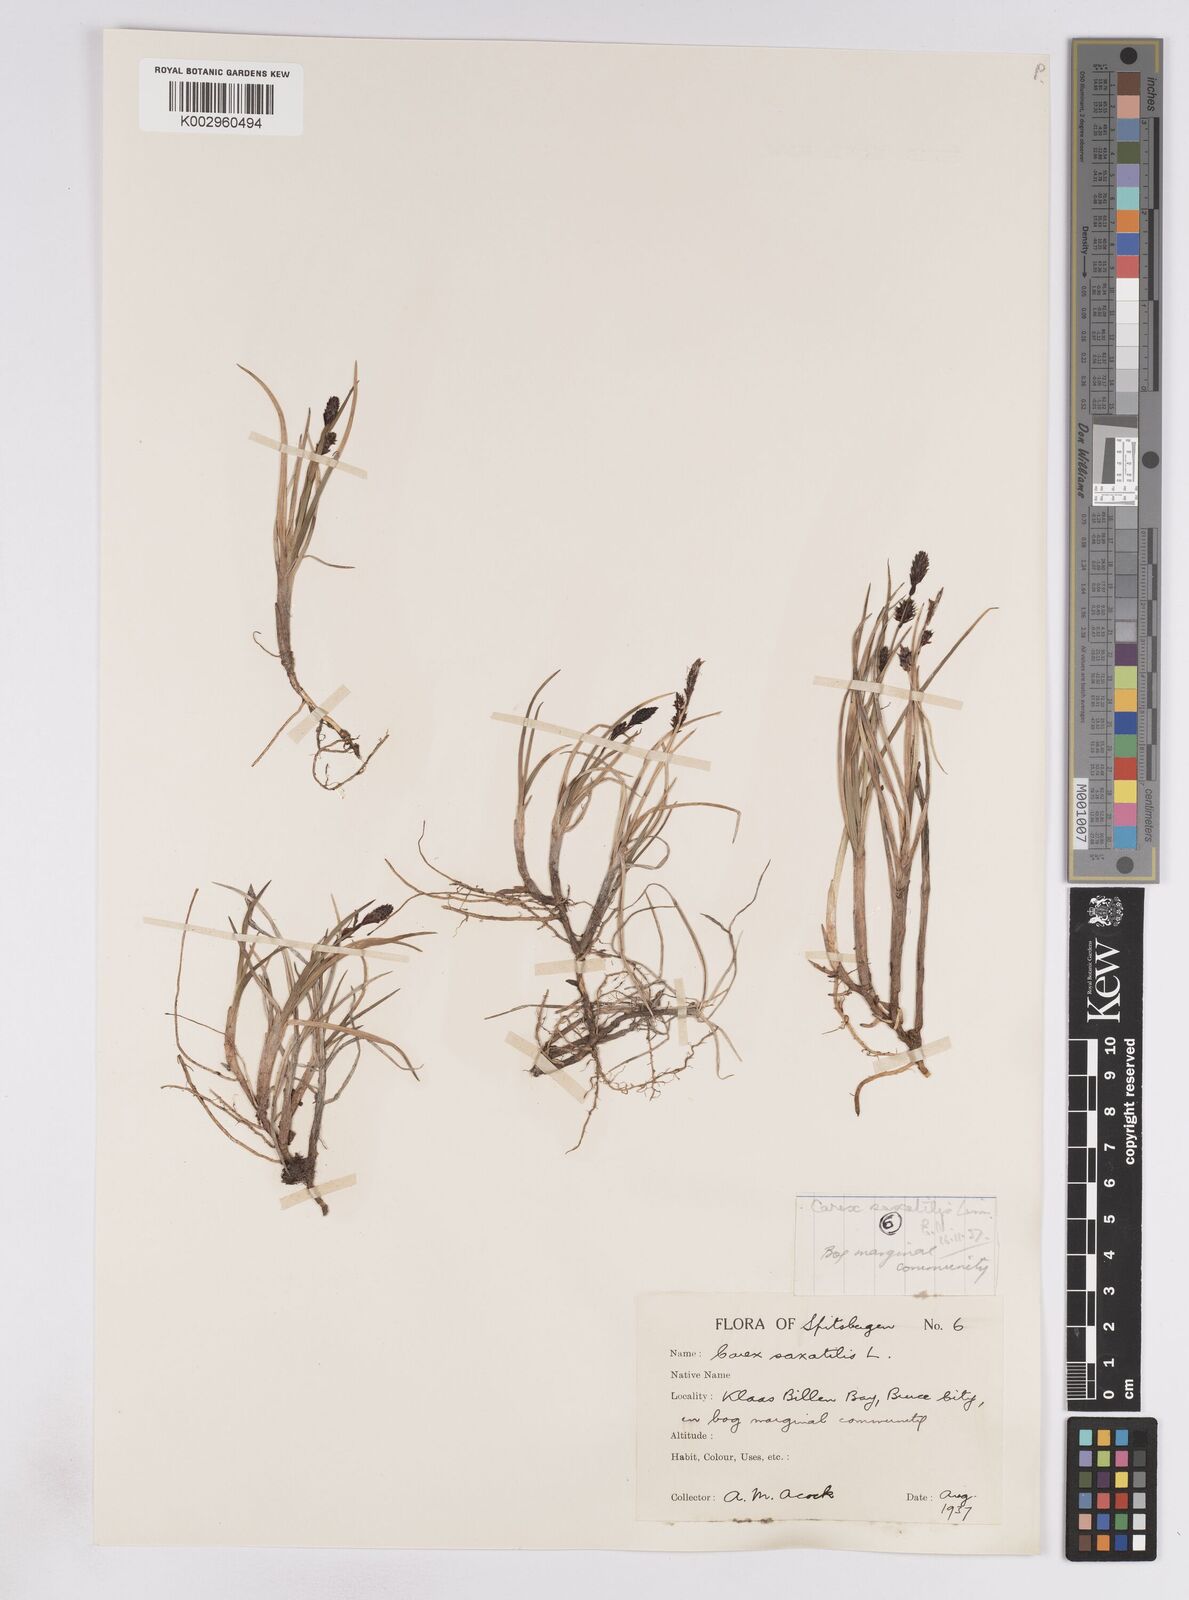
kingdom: Plantae
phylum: Tracheophyta
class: Liliopsida
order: Poales
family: Cyperaceae
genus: Carex
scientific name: Carex saxatilis
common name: Russet sedge
